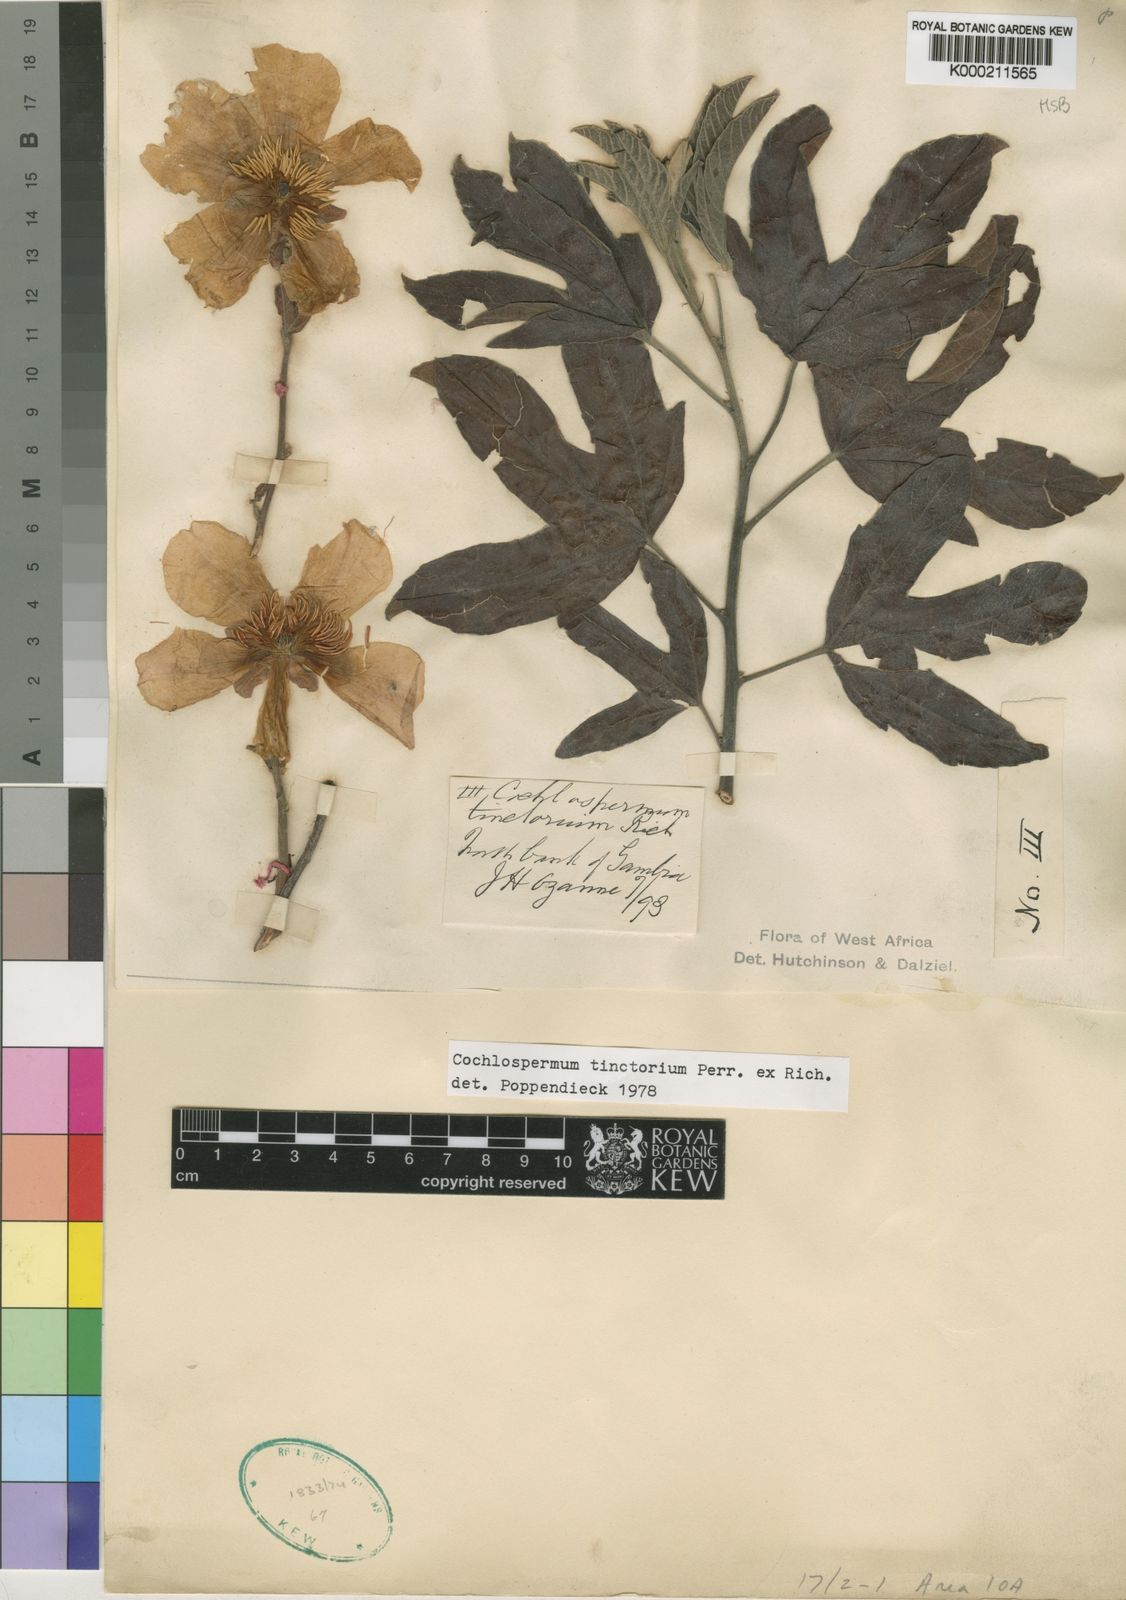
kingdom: Plantae
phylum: Tracheophyta
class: Magnoliopsida
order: Malvales
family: Cochlospermaceae
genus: Cochlospermum
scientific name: Cochlospermum tinctorium
